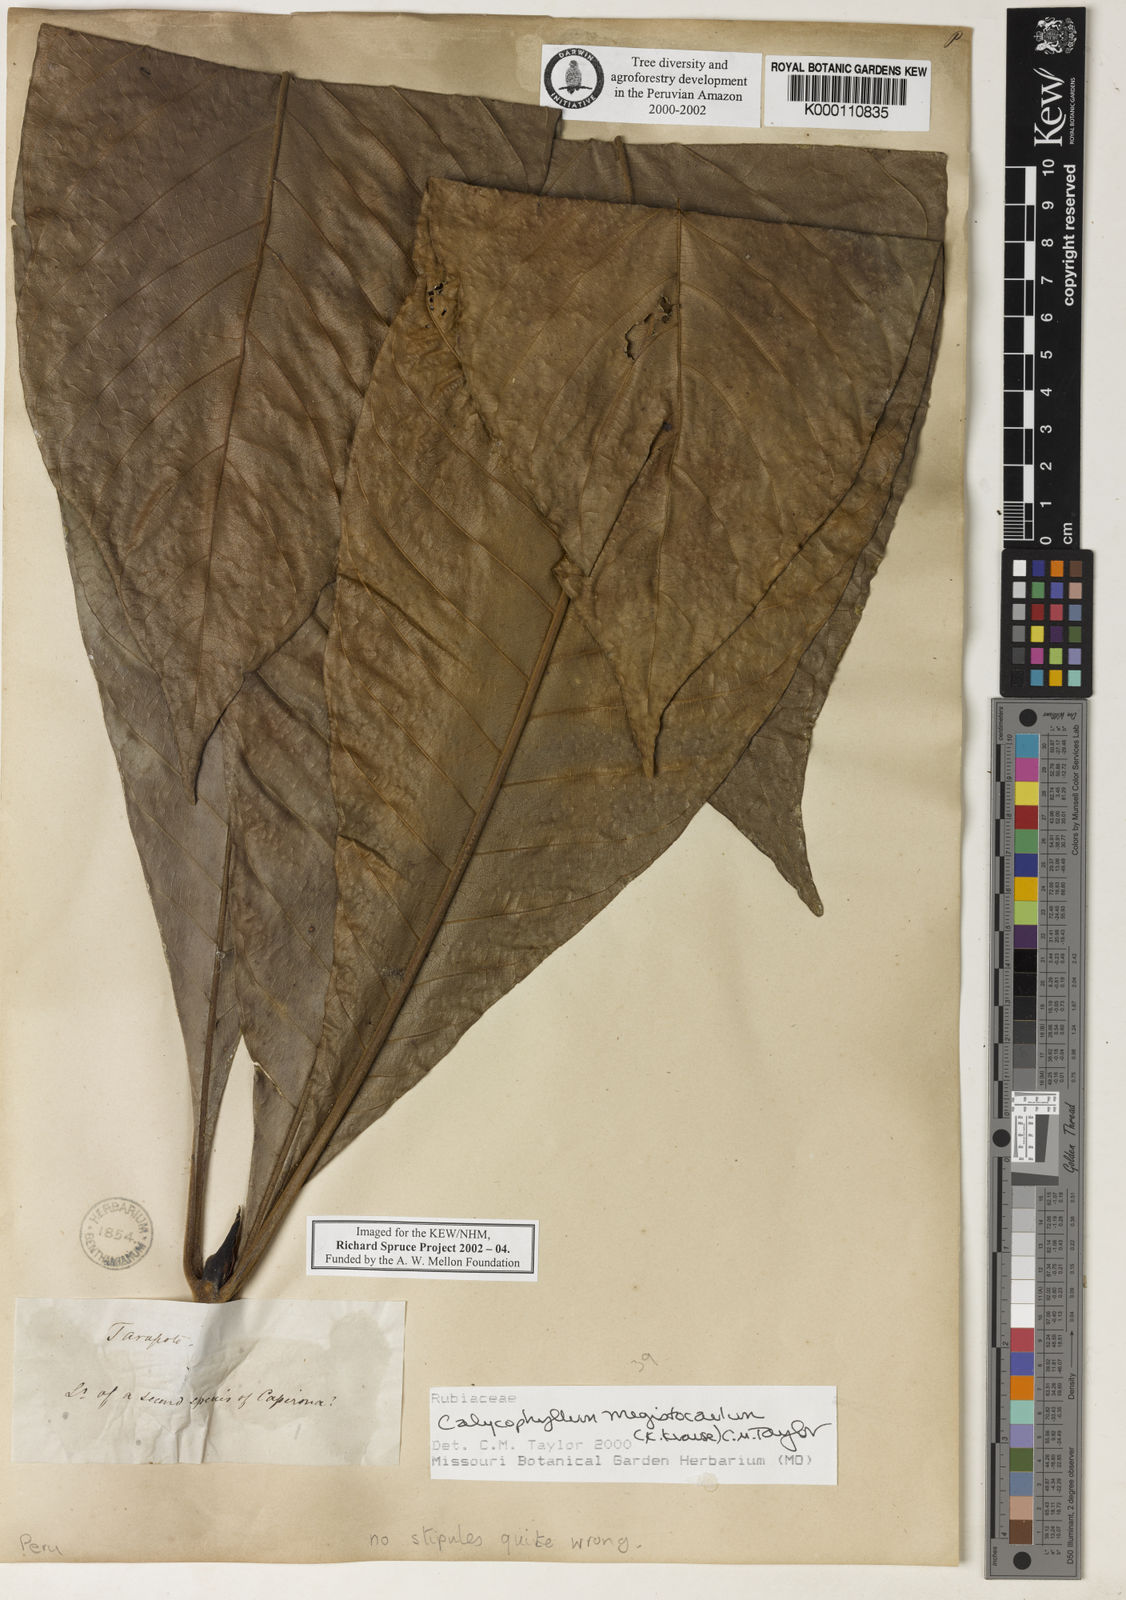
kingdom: Plantae
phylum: Tracheophyta
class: Magnoliopsida
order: Gentianales
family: Rubiaceae
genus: Calycophyllum
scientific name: Calycophyllum megistocaulum
